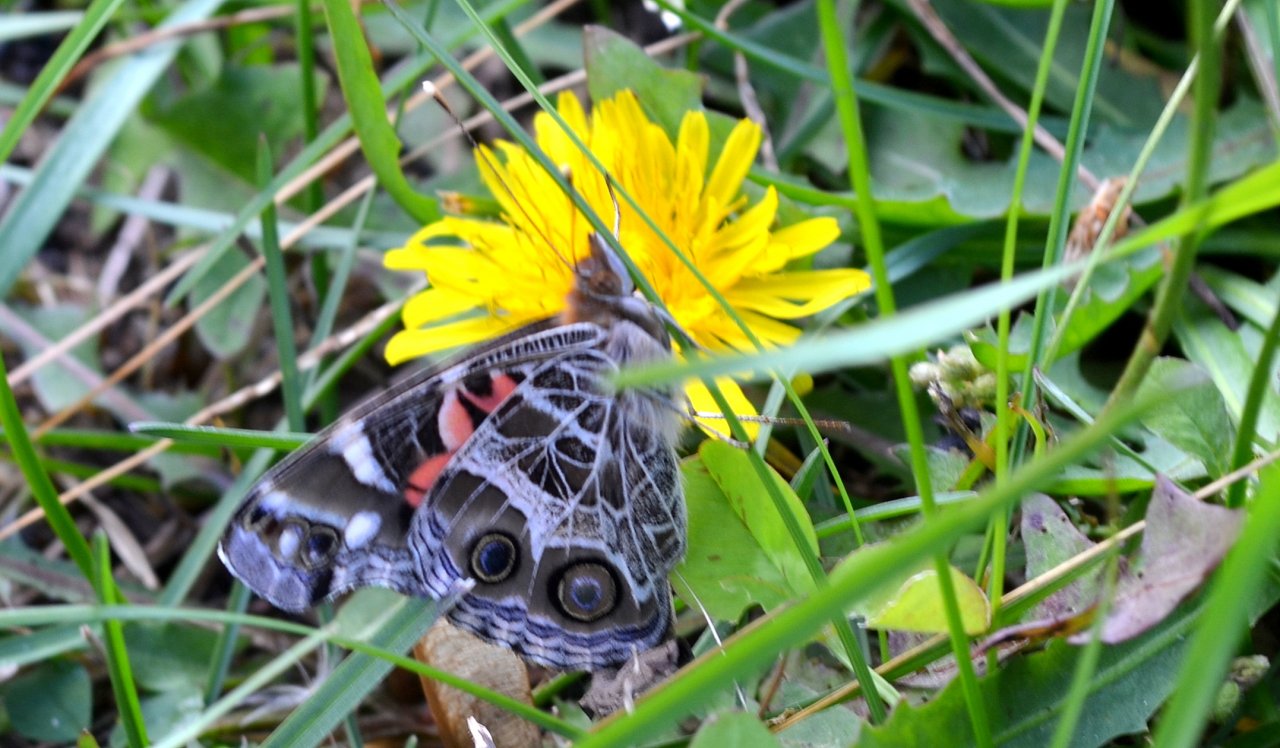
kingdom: Animalia
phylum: Arthropoda
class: Insecta
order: Lepidoptera
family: Nymphalidae
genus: Vanessa
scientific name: Vanessa virginiensis
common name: American Lady
